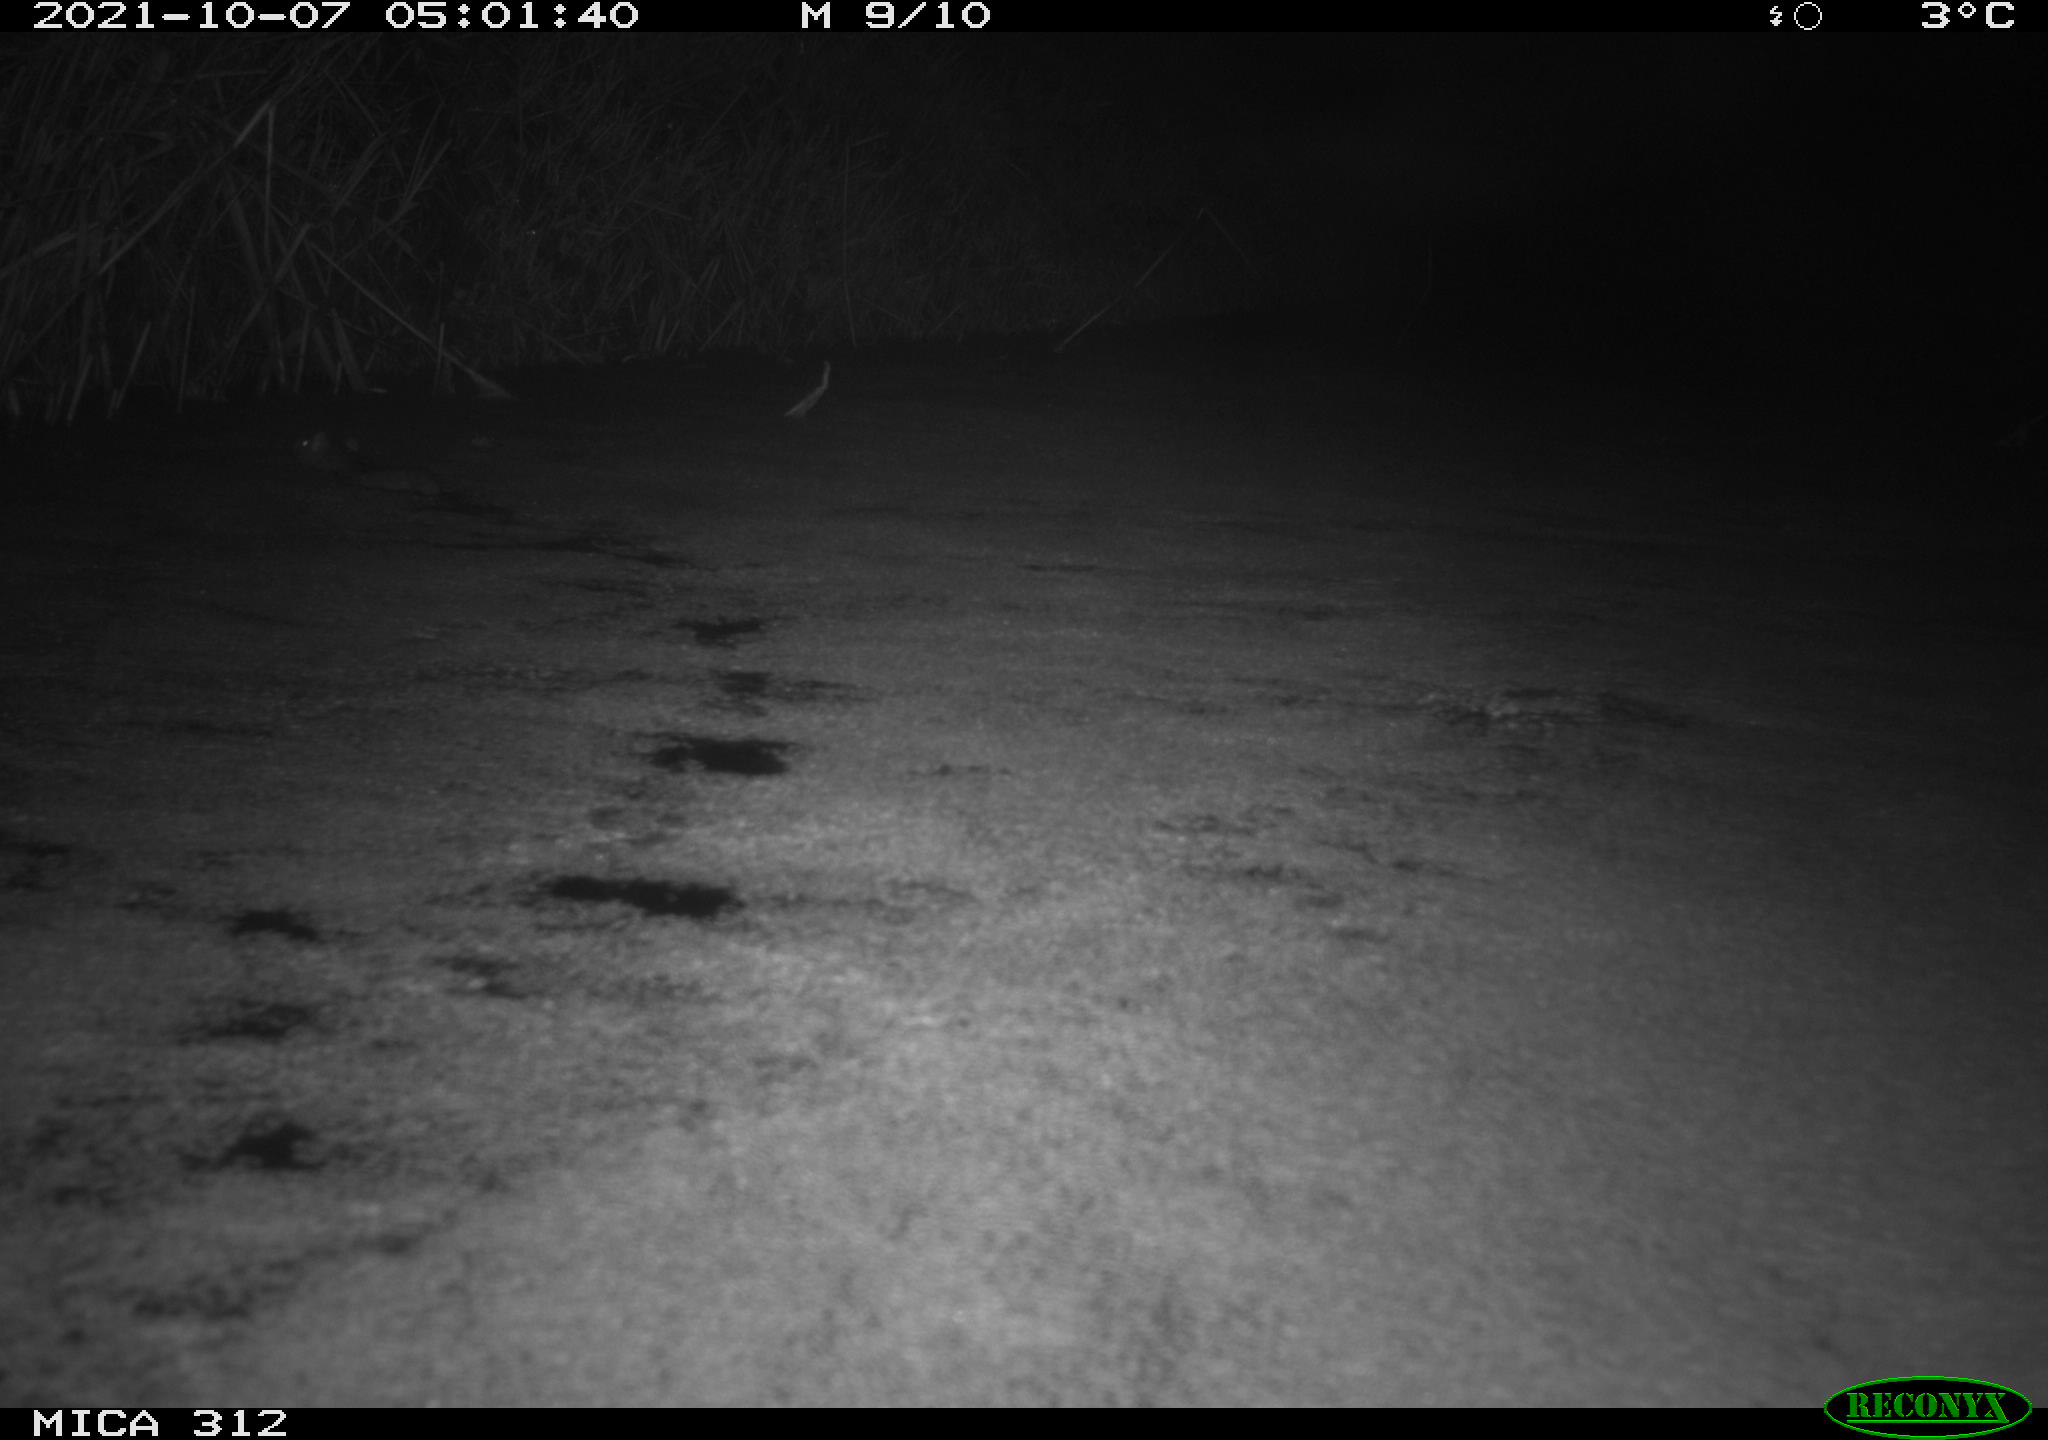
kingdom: Animalia
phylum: Chordata
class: Mammalia
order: Rodentia
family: Muridae
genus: Rattus
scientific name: Rattus norvegicus
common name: Brown rat
